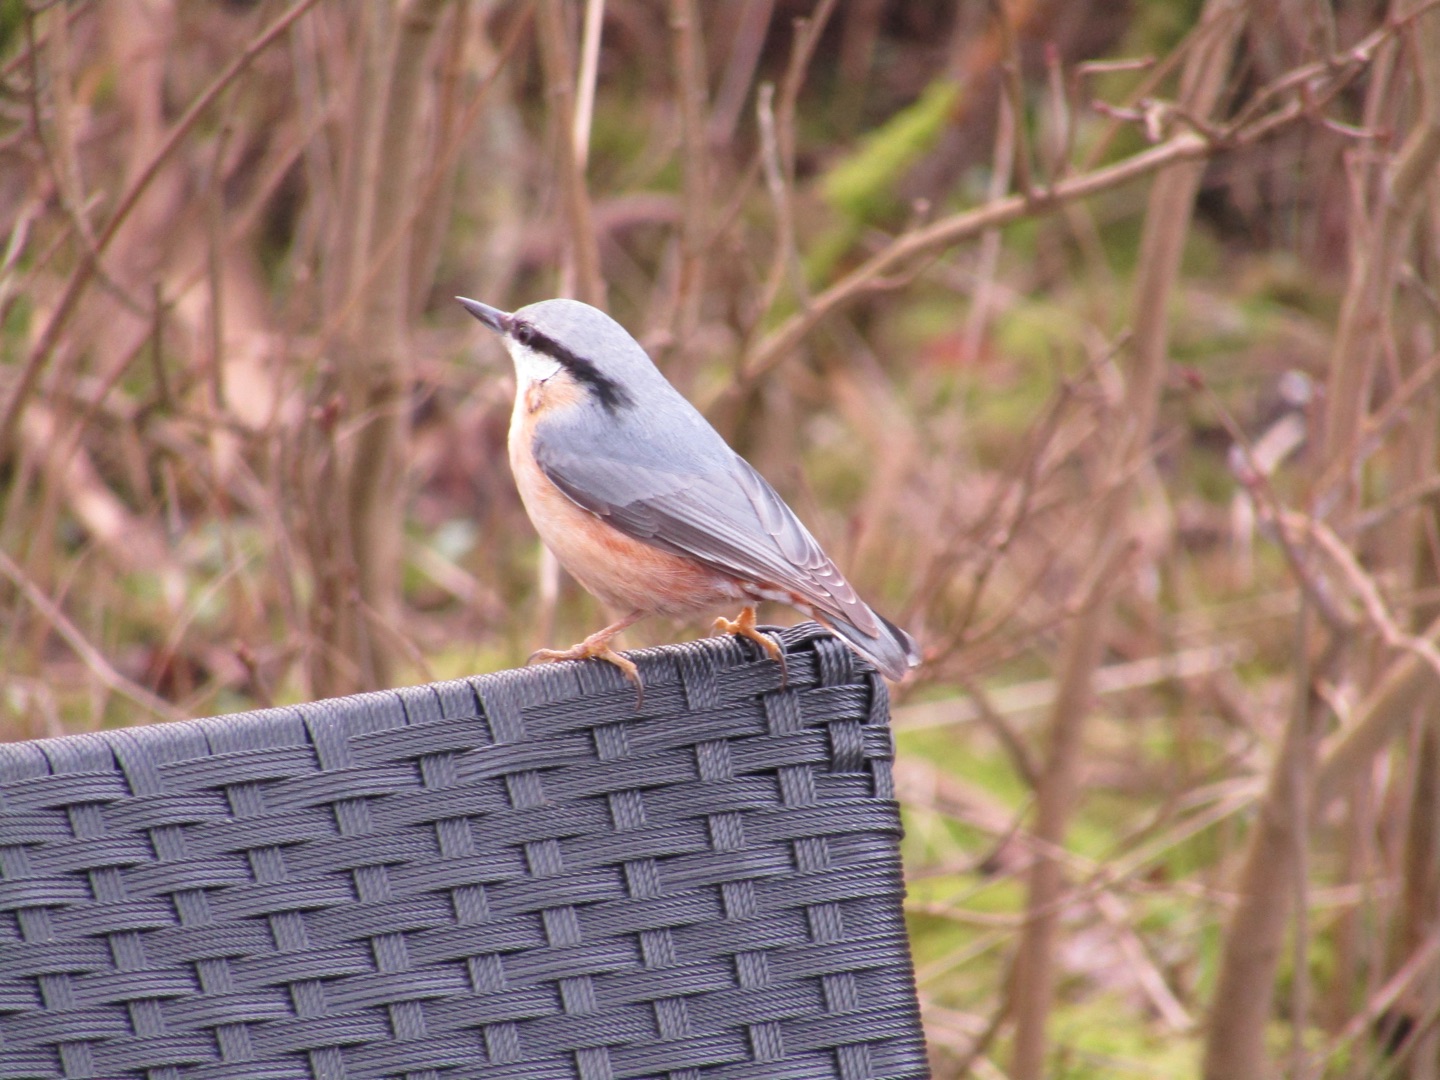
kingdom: Animalia
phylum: Chordata
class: Aves
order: Passeriformes
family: Sittidae
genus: Sitta
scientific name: Sitta europaea
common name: Spætmejse
